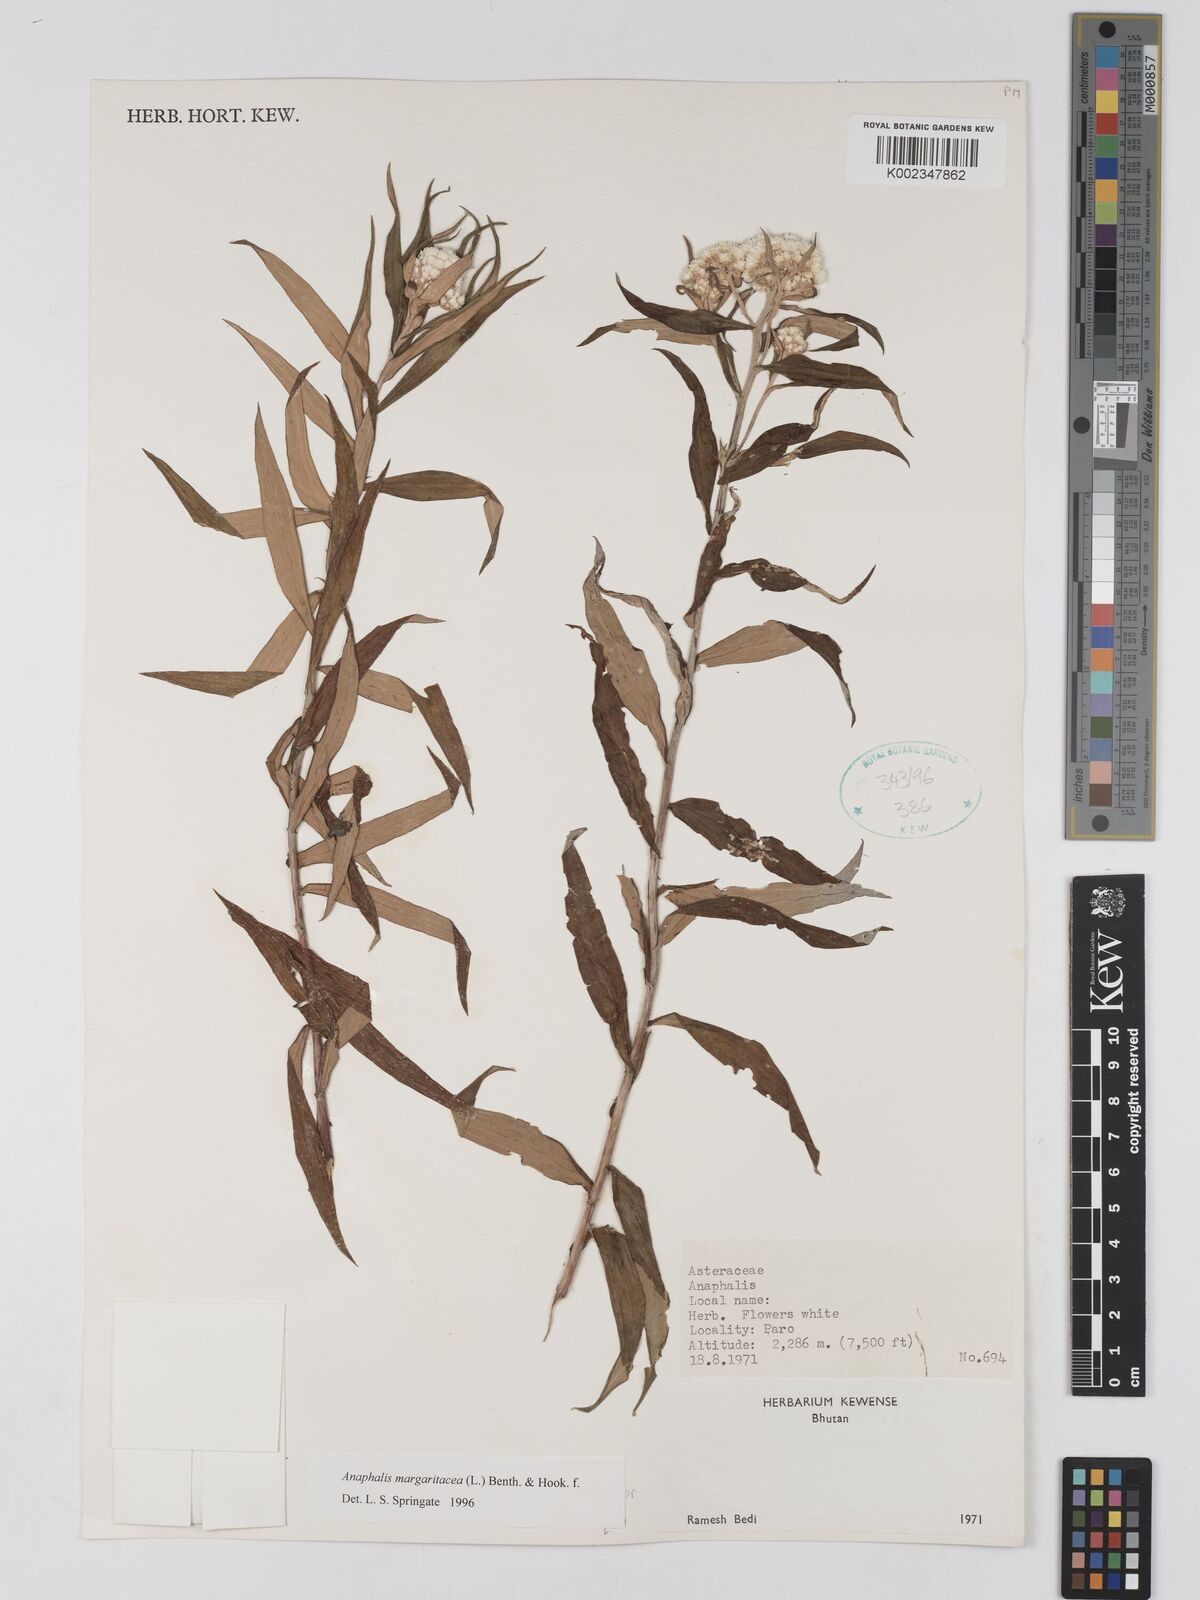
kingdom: Plantae
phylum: Tracheophyta
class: Magnoliopsida
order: Asterales
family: Asteraceae
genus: Anaphalis
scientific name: Anaphalis margaritacea
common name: Pearly everlasting
